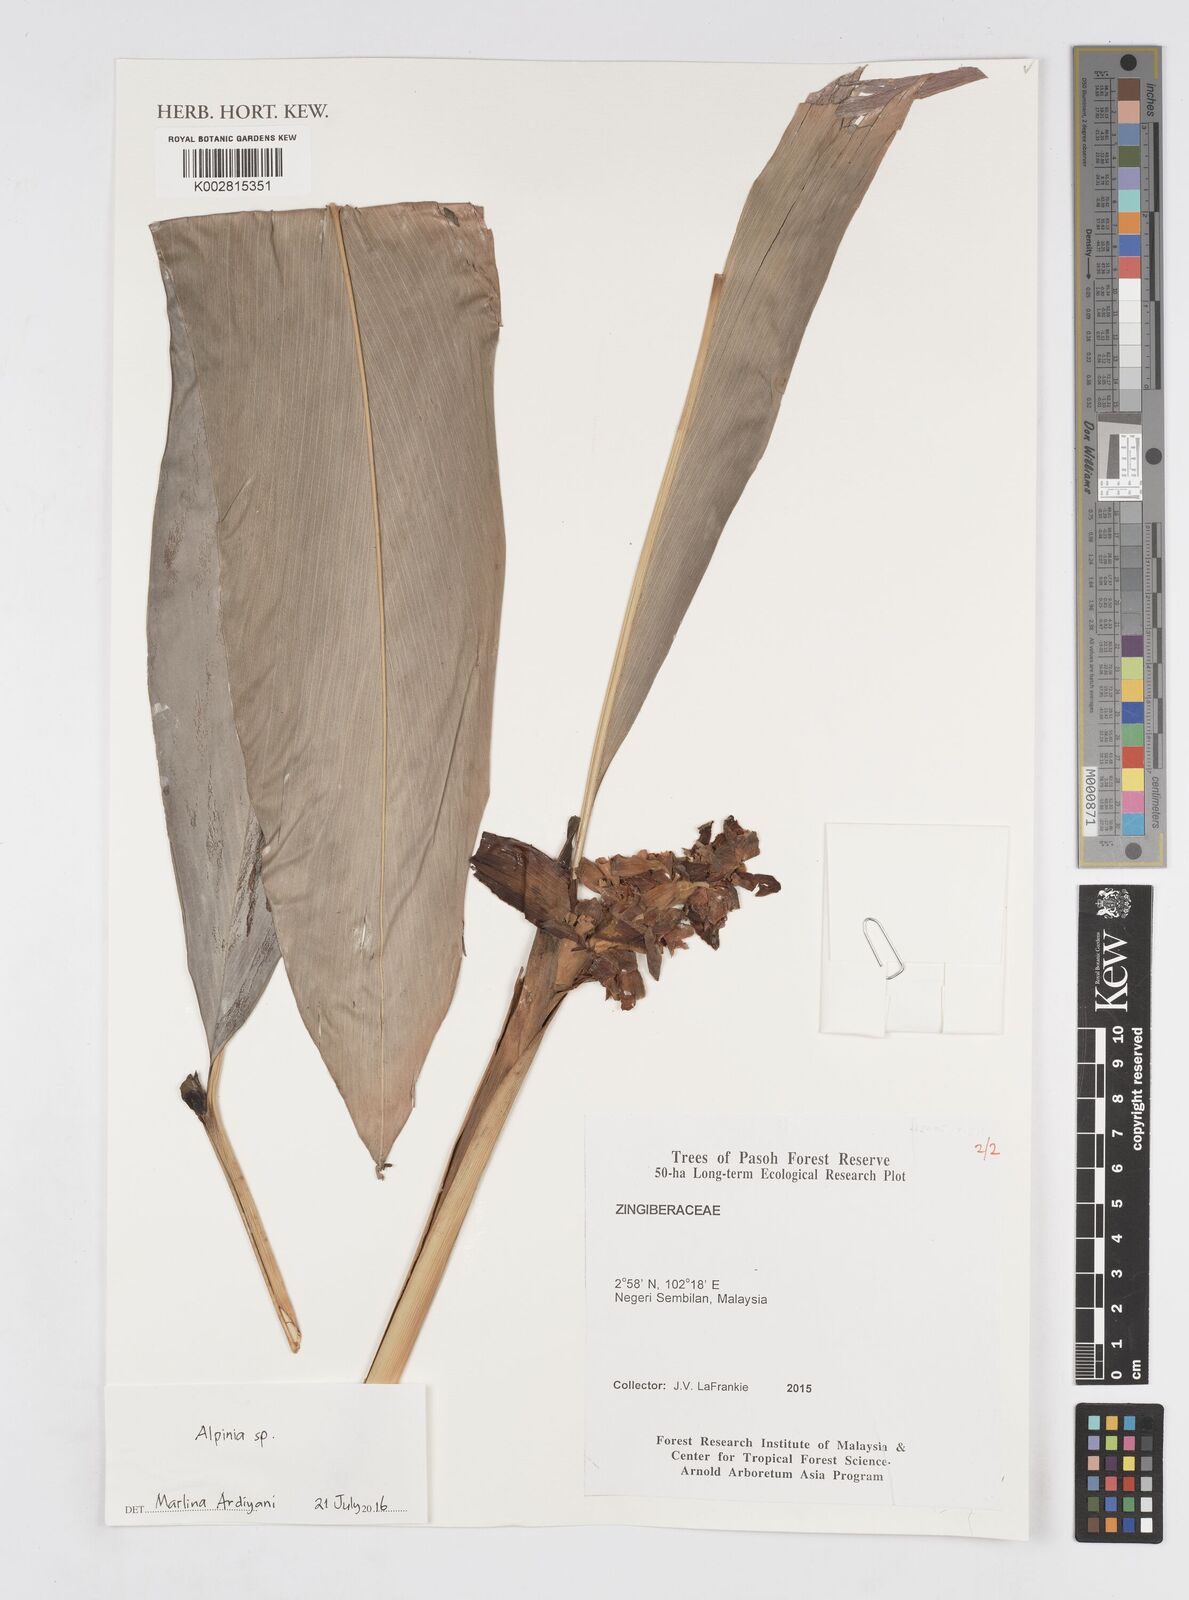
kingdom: Plantae
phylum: Tracheophyta
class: Liliopsida
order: Zingiberales
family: Zingiberaceae
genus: Alpinia
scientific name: Alpinia
